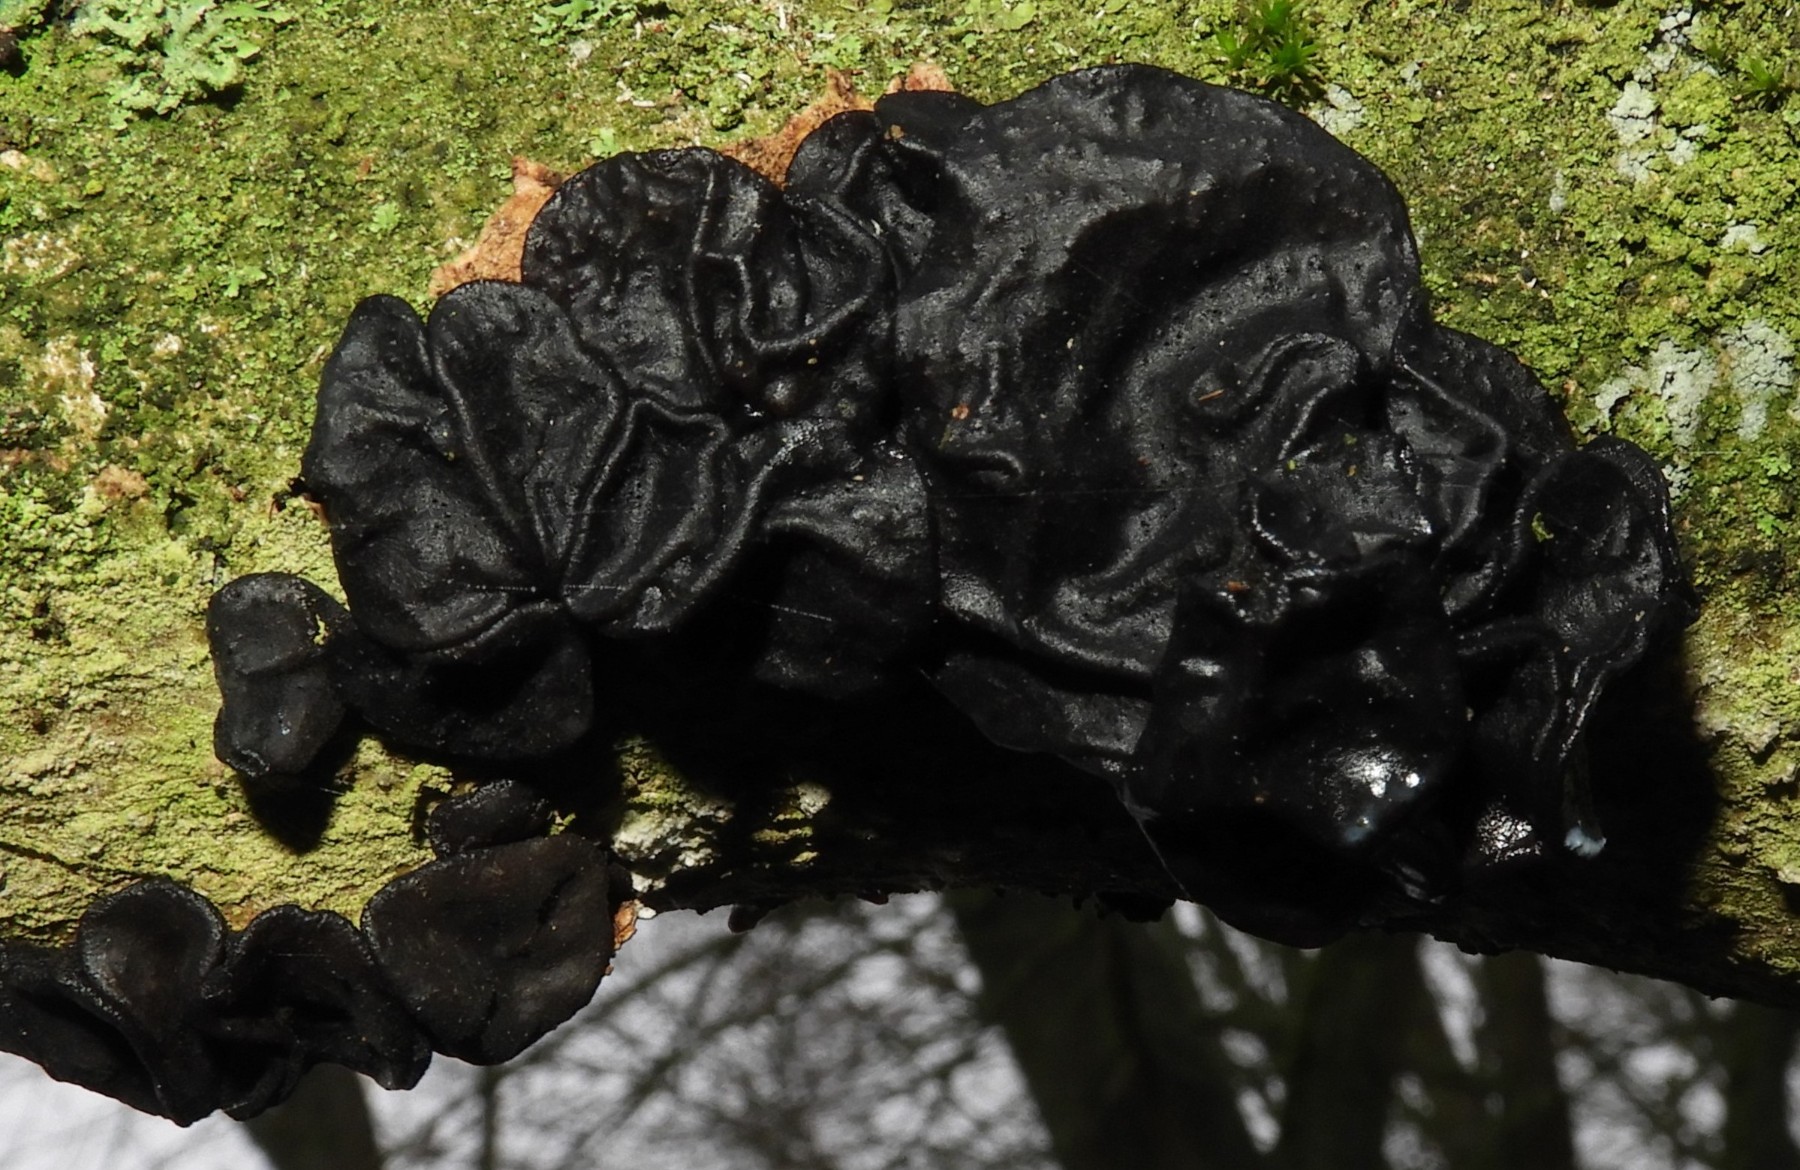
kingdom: Fungi
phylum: Basidiomycota
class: Agaricomycetes
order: Auriculariales
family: Auriculariaceae
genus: Exidia
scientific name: Exidia glandulosa
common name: ege-bævretop
